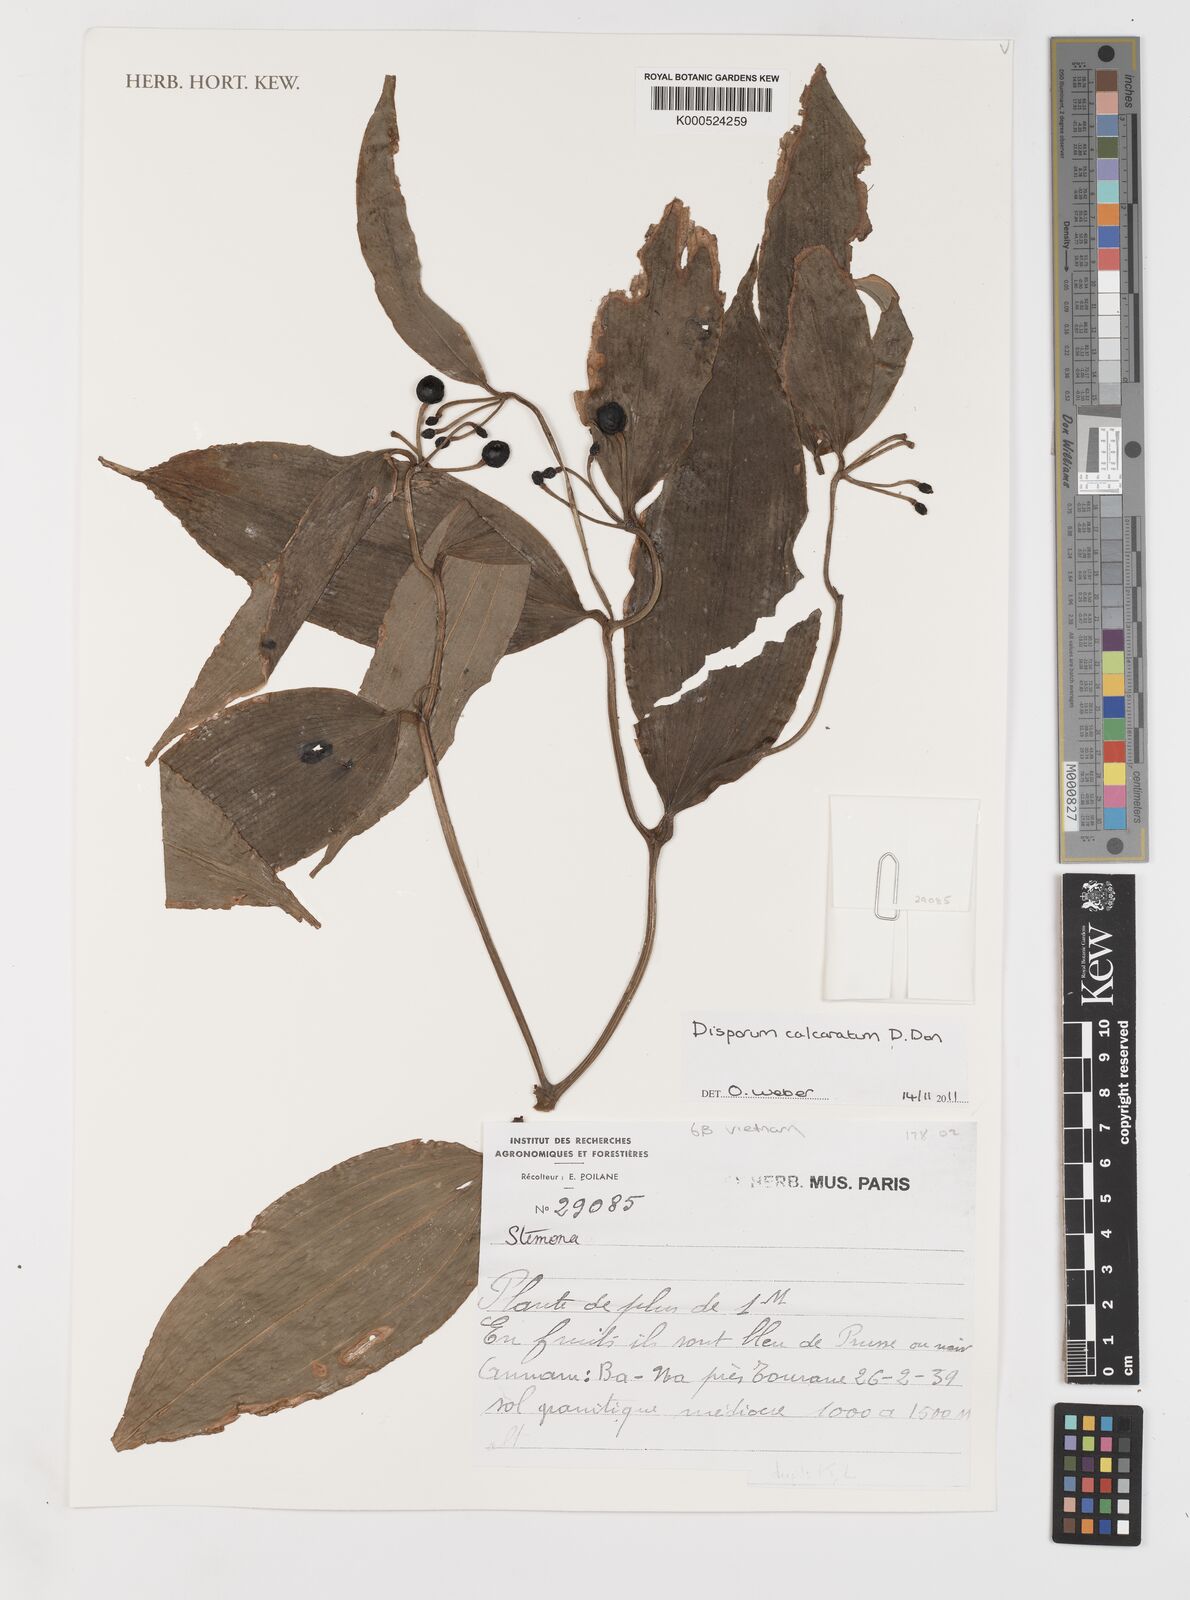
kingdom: Plantae
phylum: Tracheophyta
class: Liliopsida
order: Liliales
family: Colchicaceae
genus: Disporum
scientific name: Disporum calcaratum
